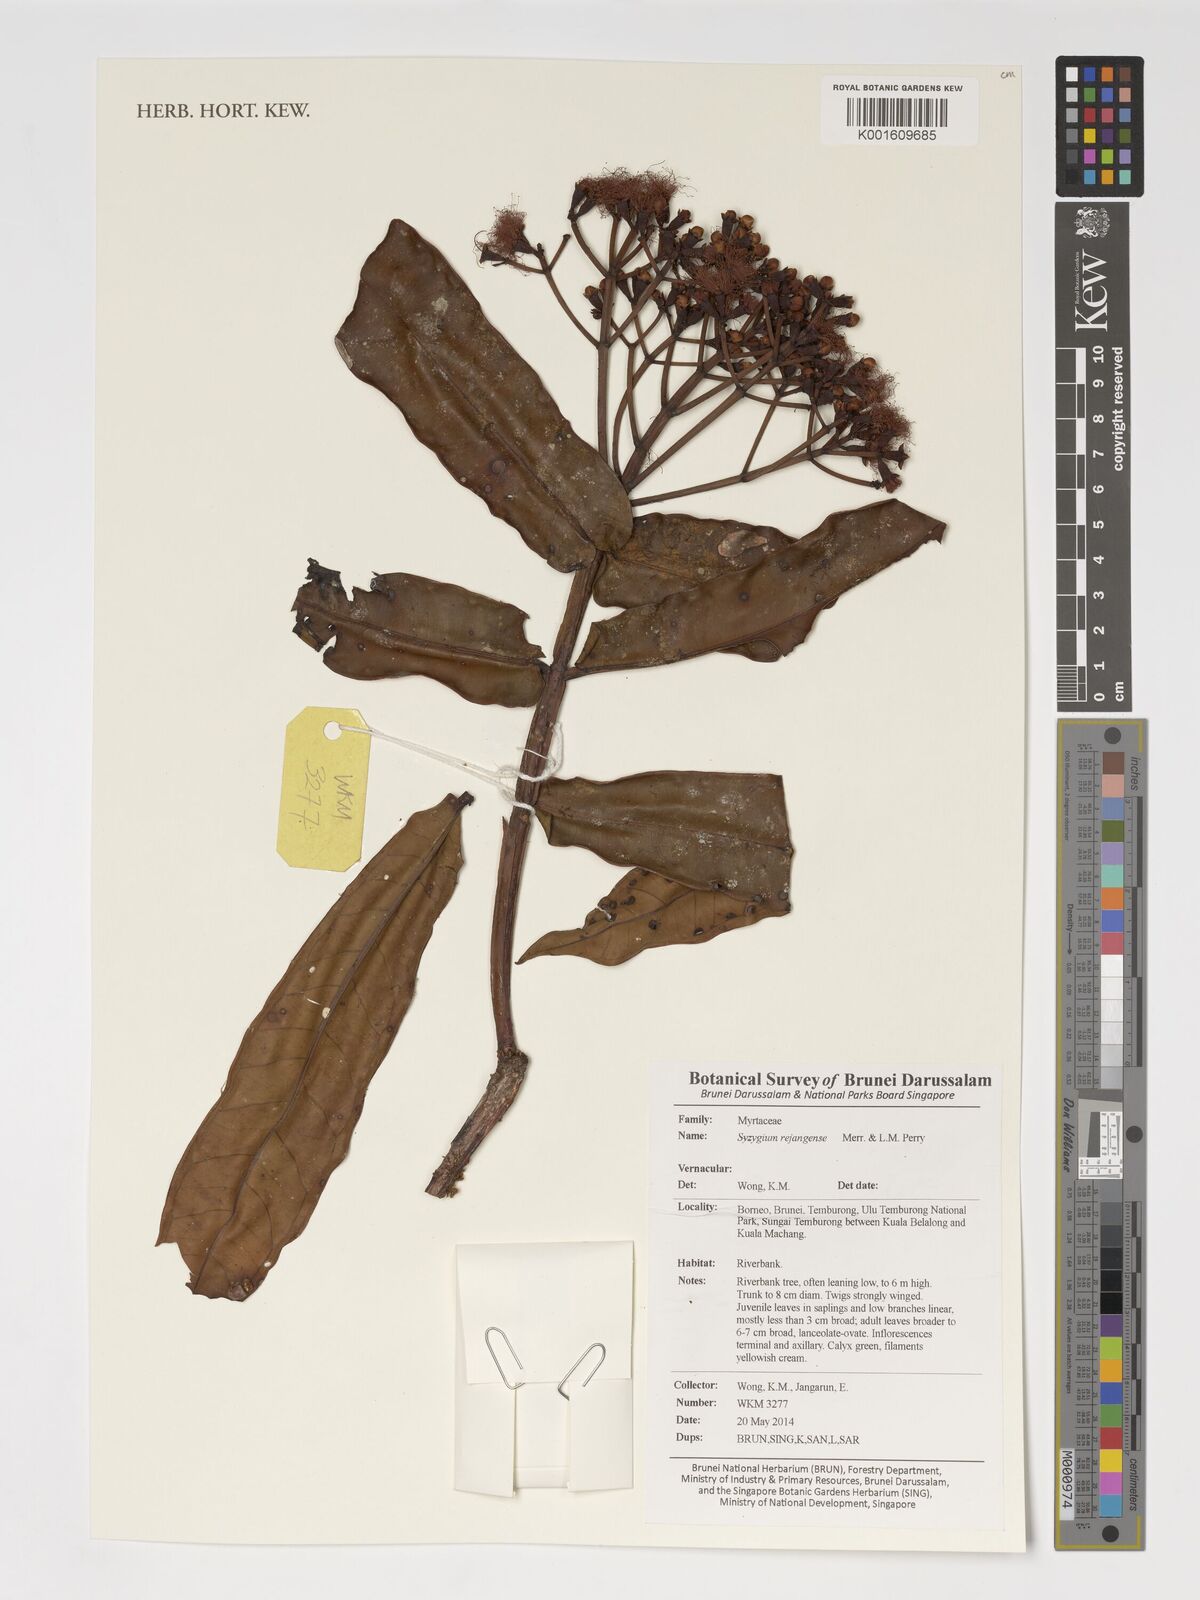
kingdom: Plantae
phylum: Tracheophyta
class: Magnoliopsida
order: Myrtales
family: Myrtaceae
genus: Syzygium
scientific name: Syzygium rejangense
